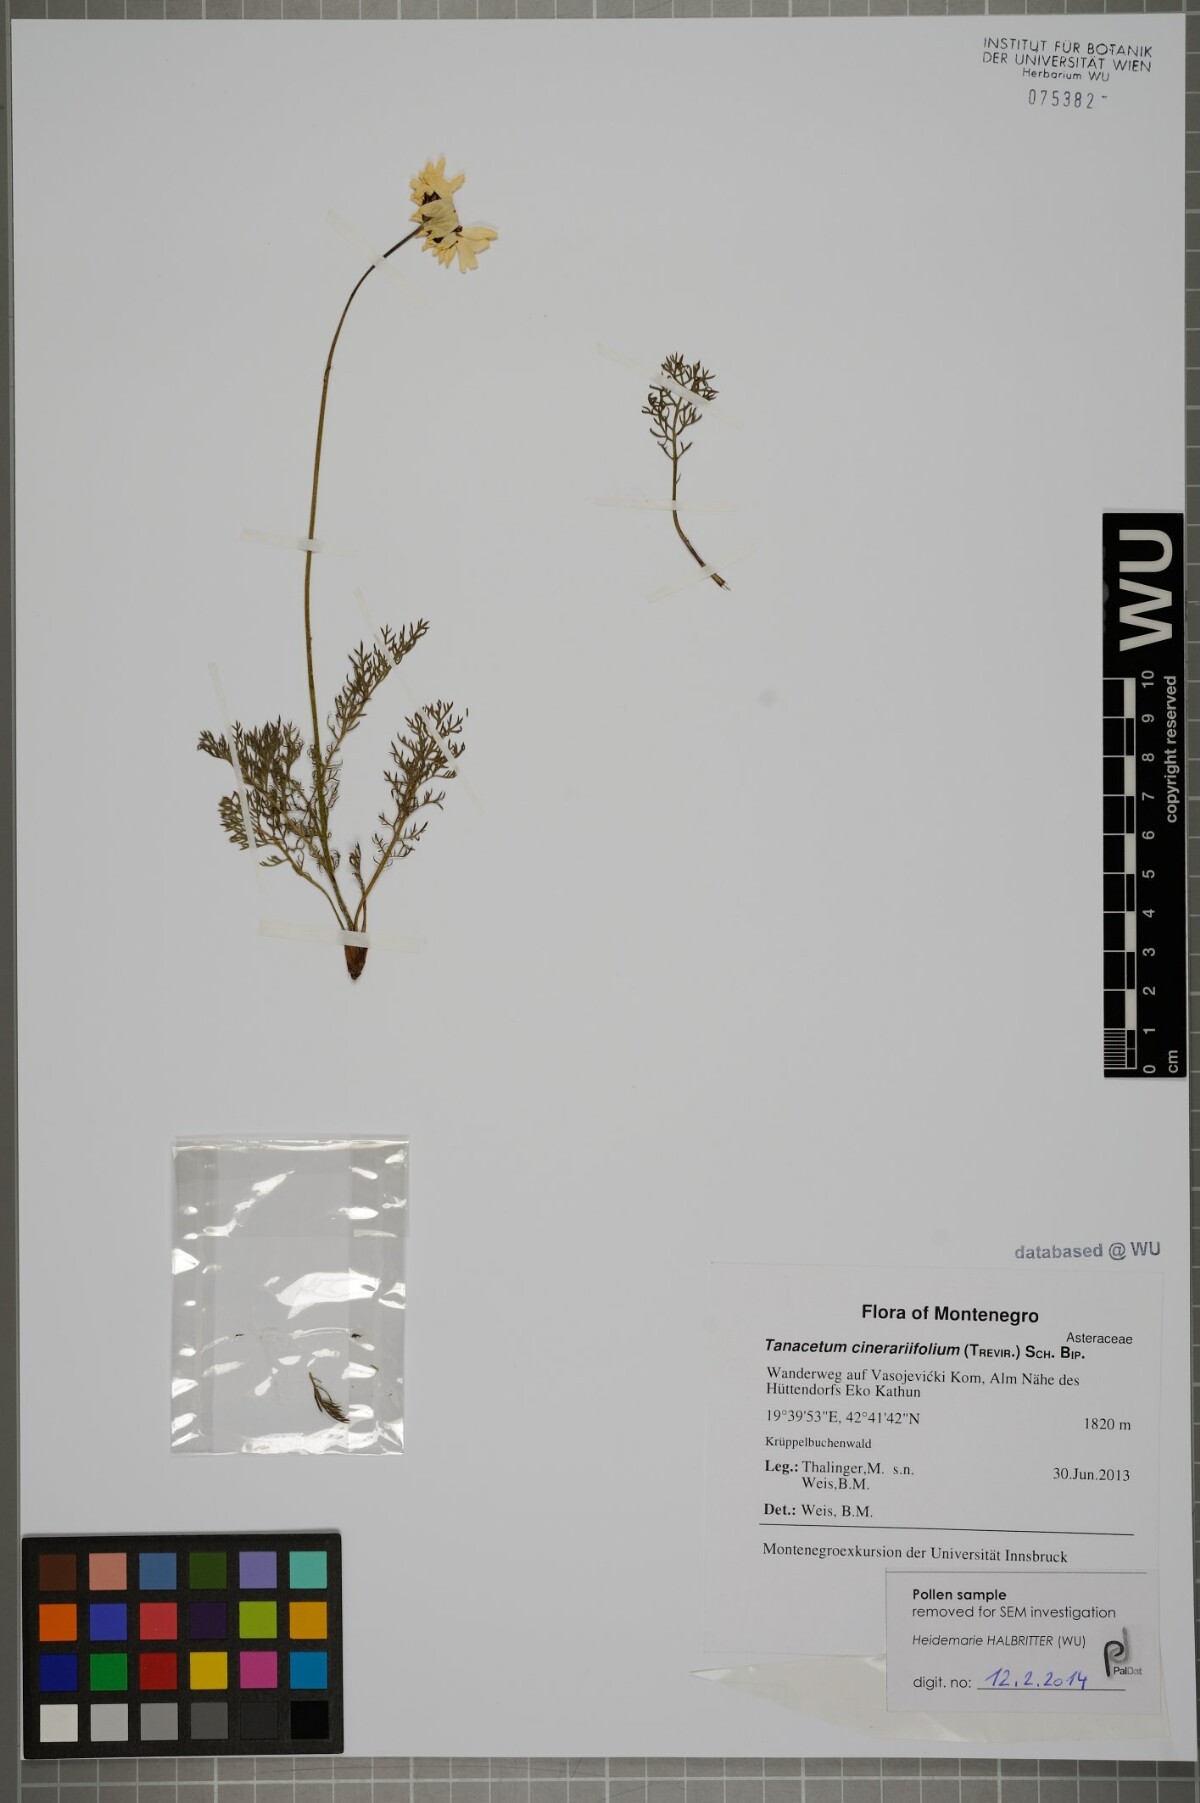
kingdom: Plantae
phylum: Tracheophyta
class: Magnoliopsida
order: Asterales
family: Asteraceae
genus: Tanacetum
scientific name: Tanacetum cinerariifolium
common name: Dalmatian pyrethrum
